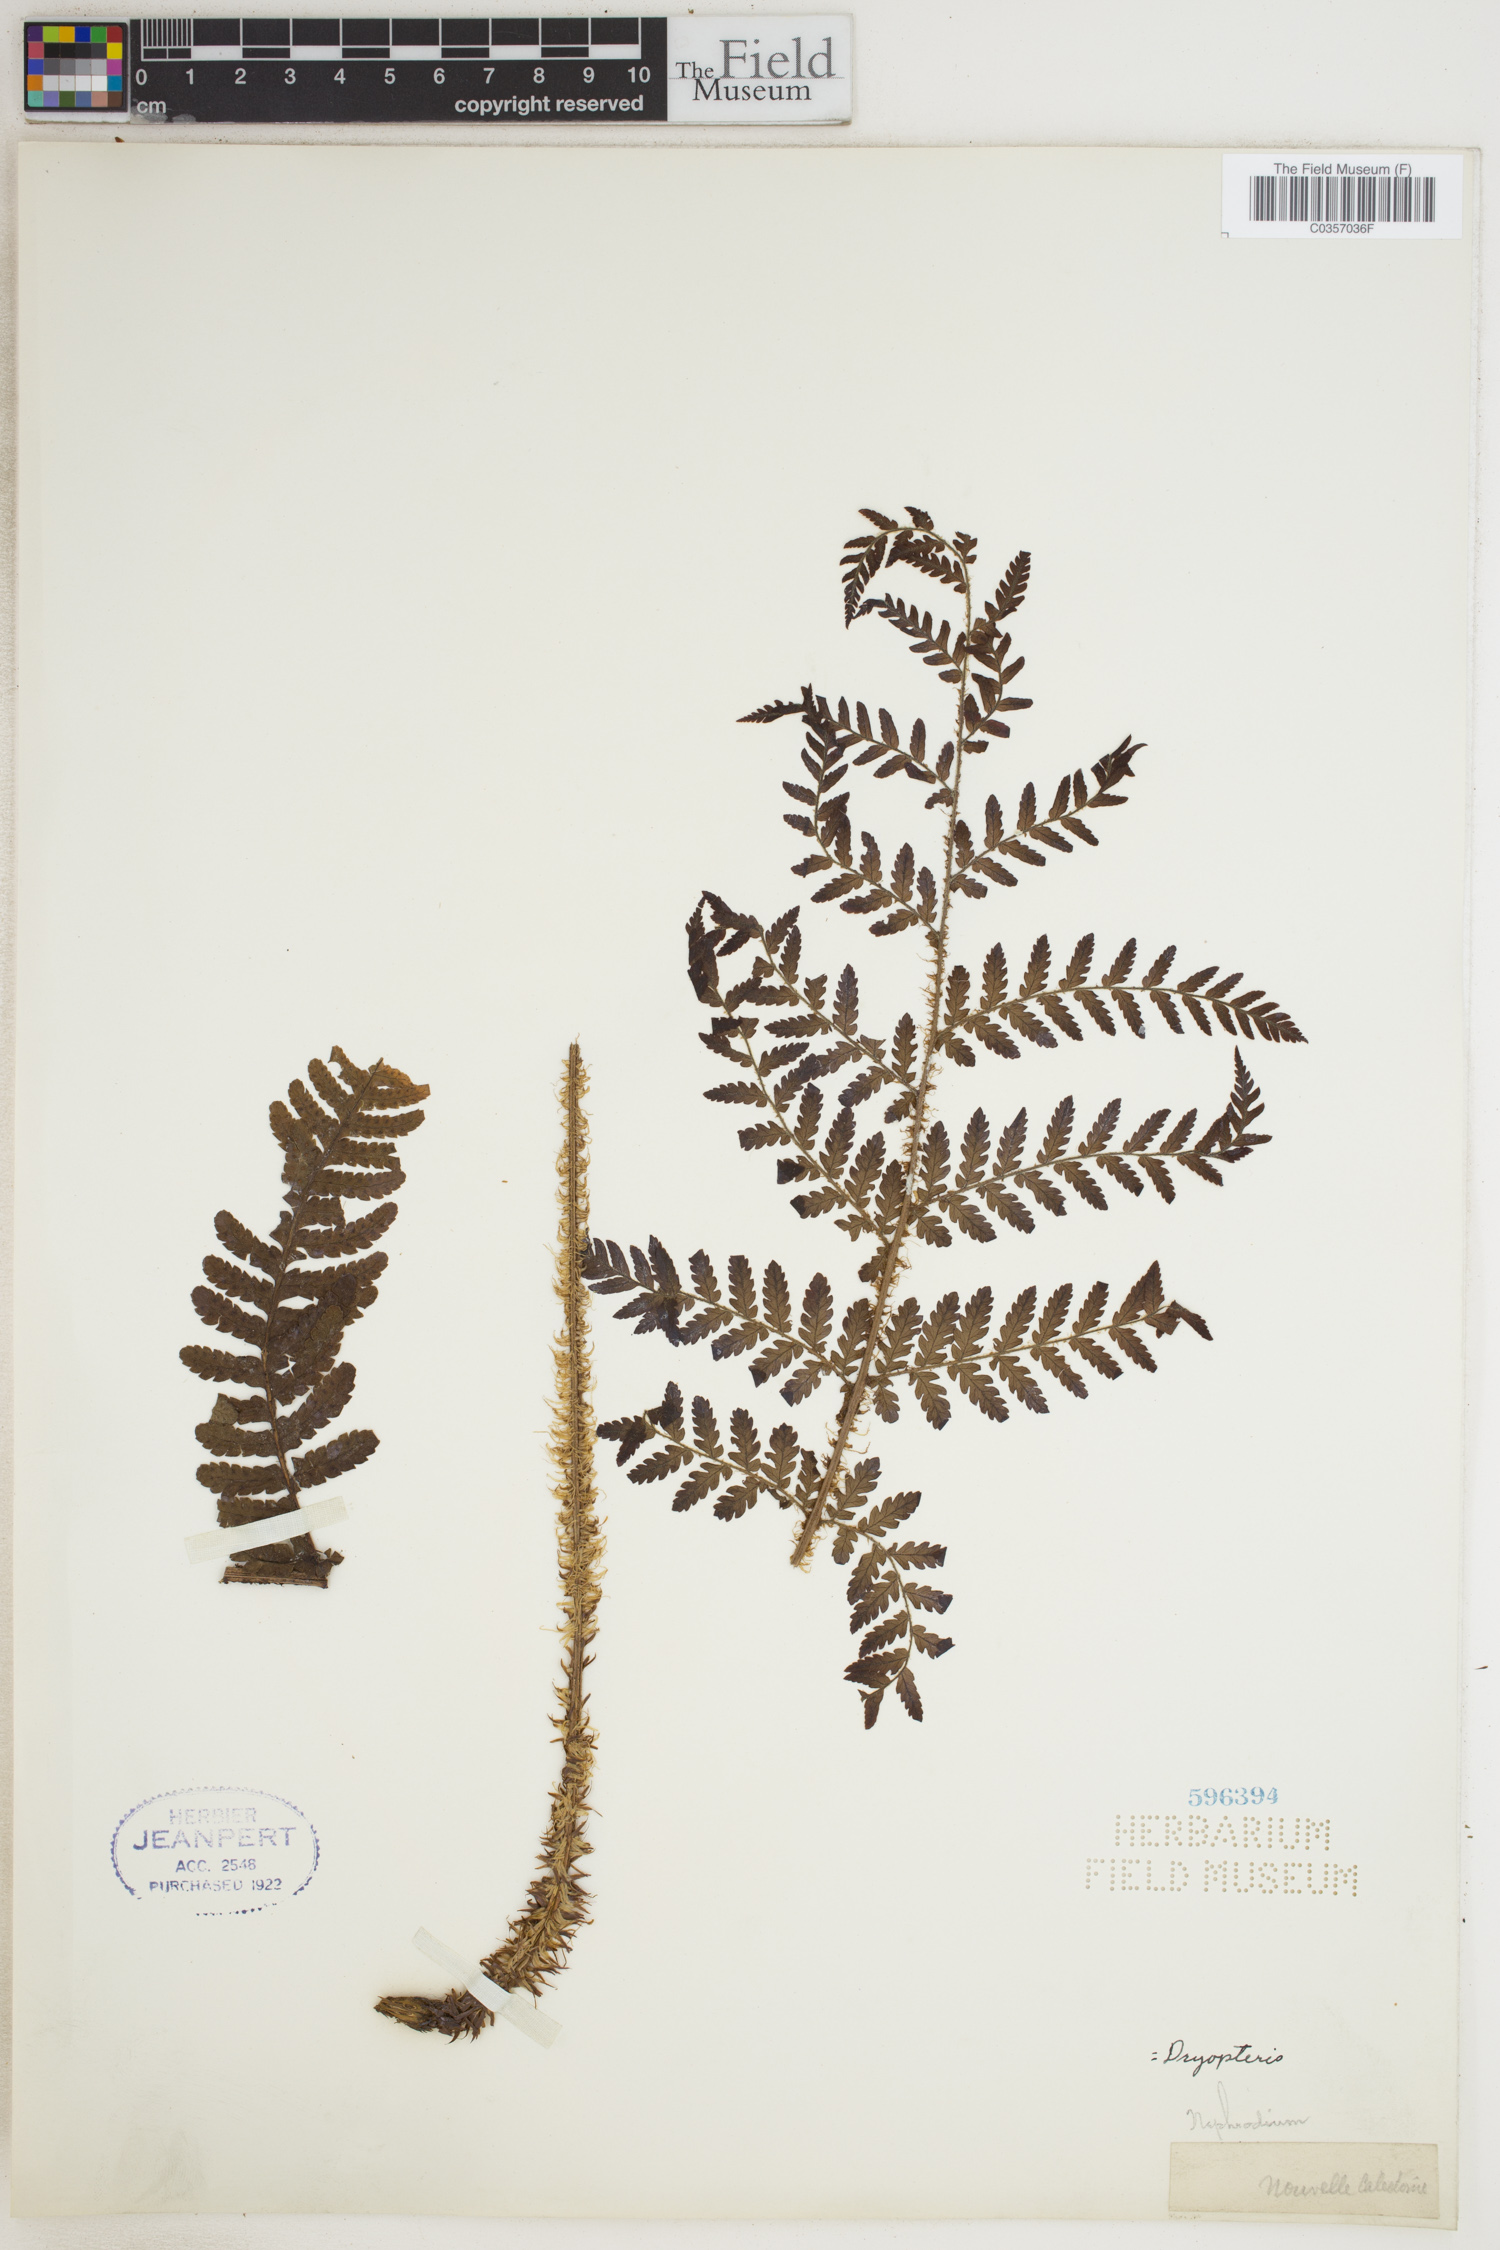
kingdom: Plantae
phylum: Tracheophyta
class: Polypodiopsida
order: Polypodiales
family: Dryopteridaceae
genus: Dryopteris
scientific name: Dryopteris
